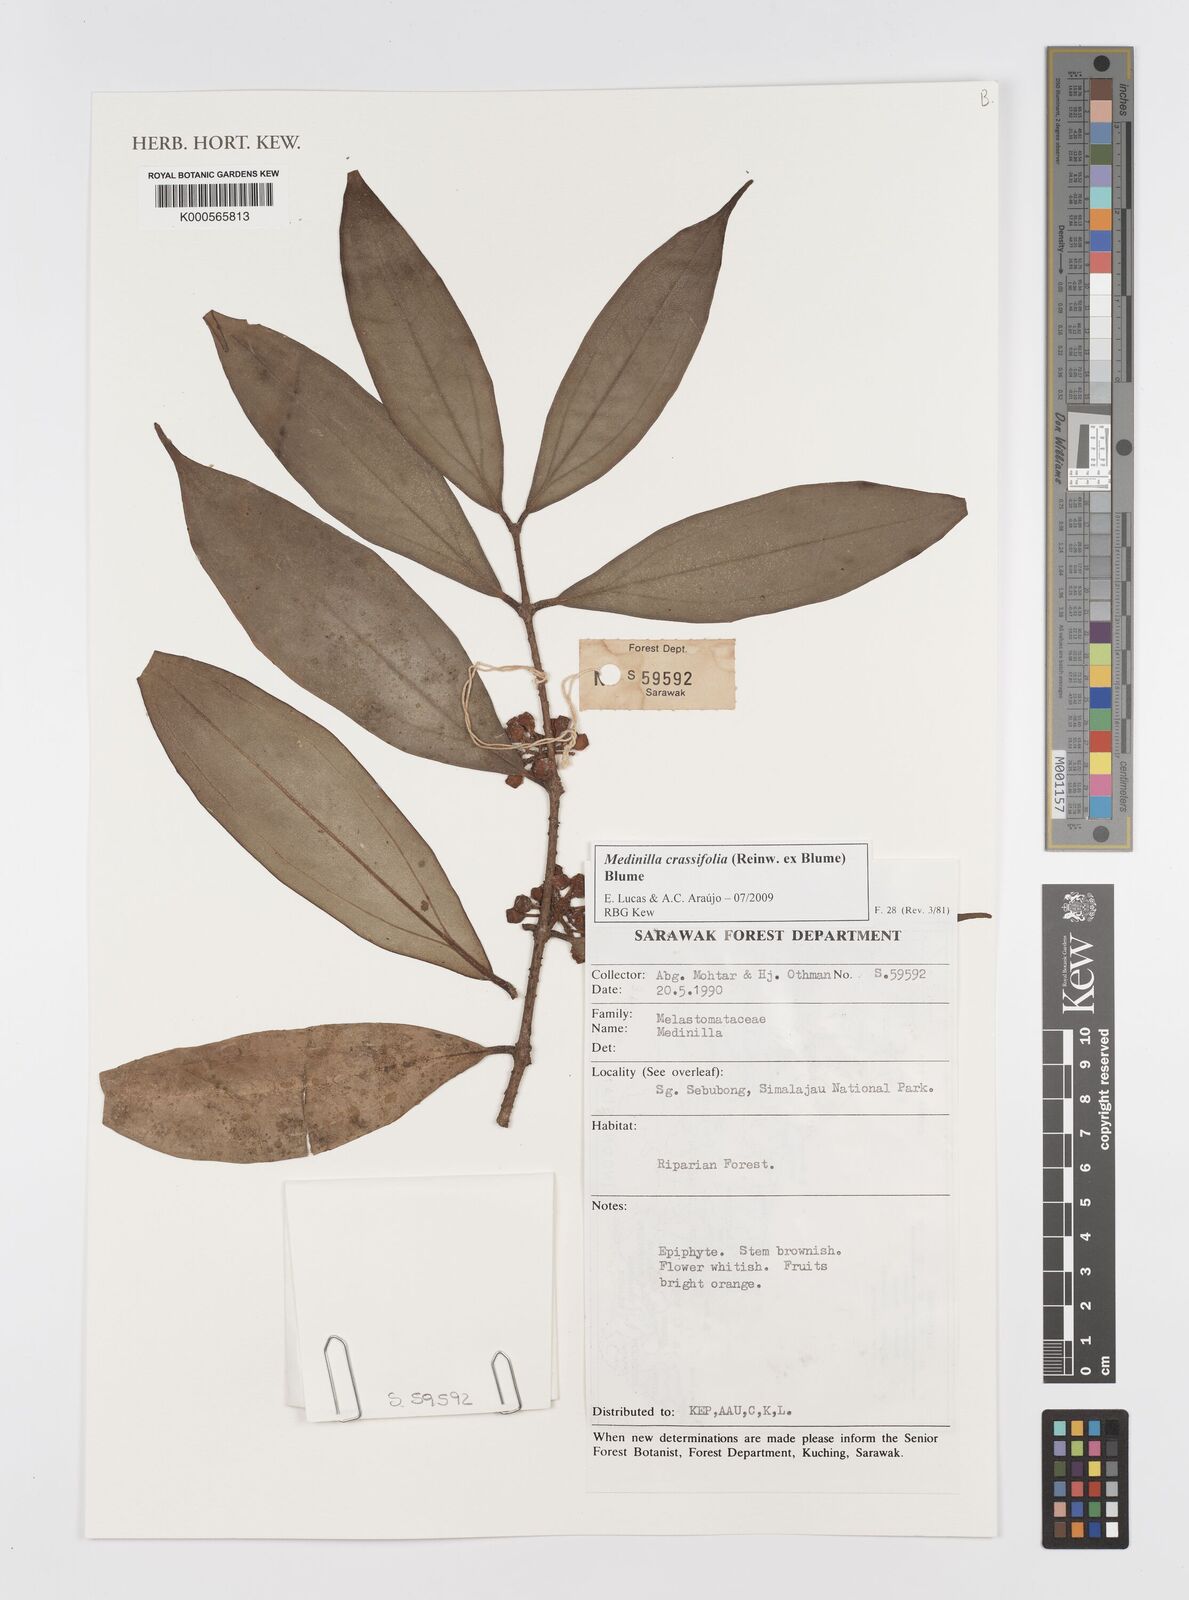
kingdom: Plantae
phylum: Tracheophyta
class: Magnoliopsida
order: Myrtales
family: Melastomataceae
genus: Medinilla
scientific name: Medinilla crassifolia
